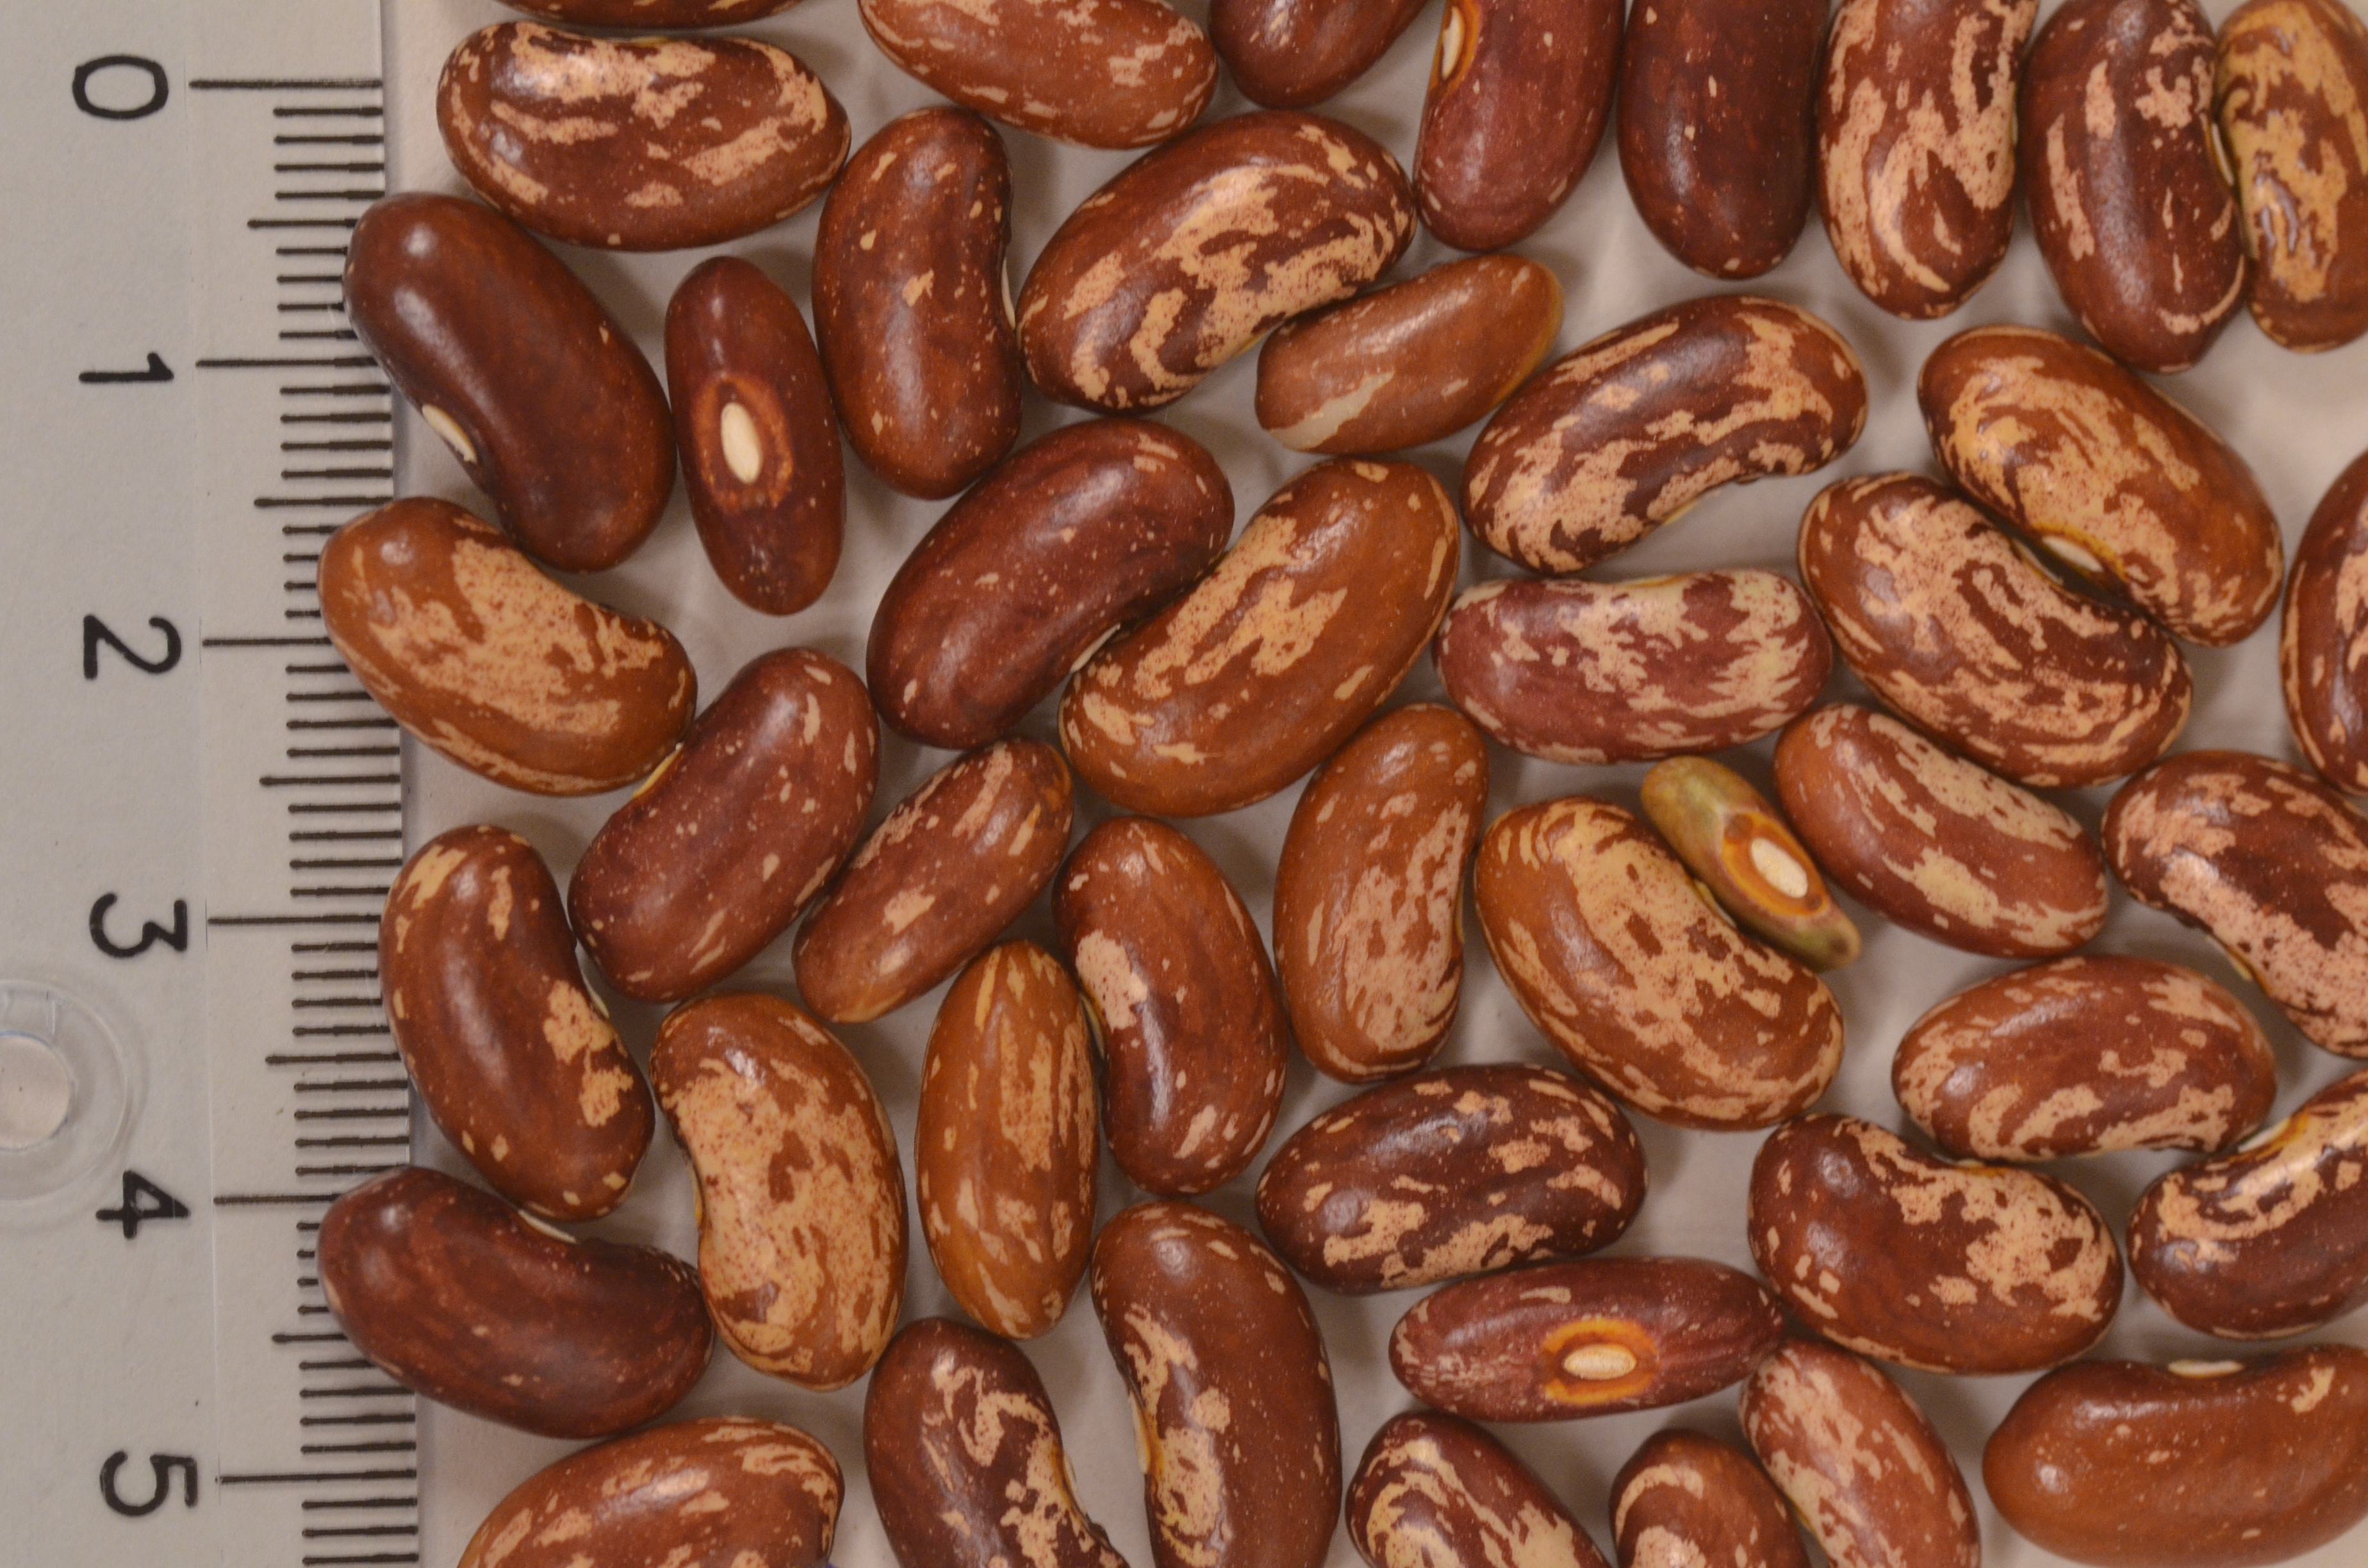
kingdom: Plantae
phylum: Tracheophyta
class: Magnoliopsida
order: Fabales
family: Fabaceae
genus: Phaseolus
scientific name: Phaseolus vulgaris
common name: Bean
